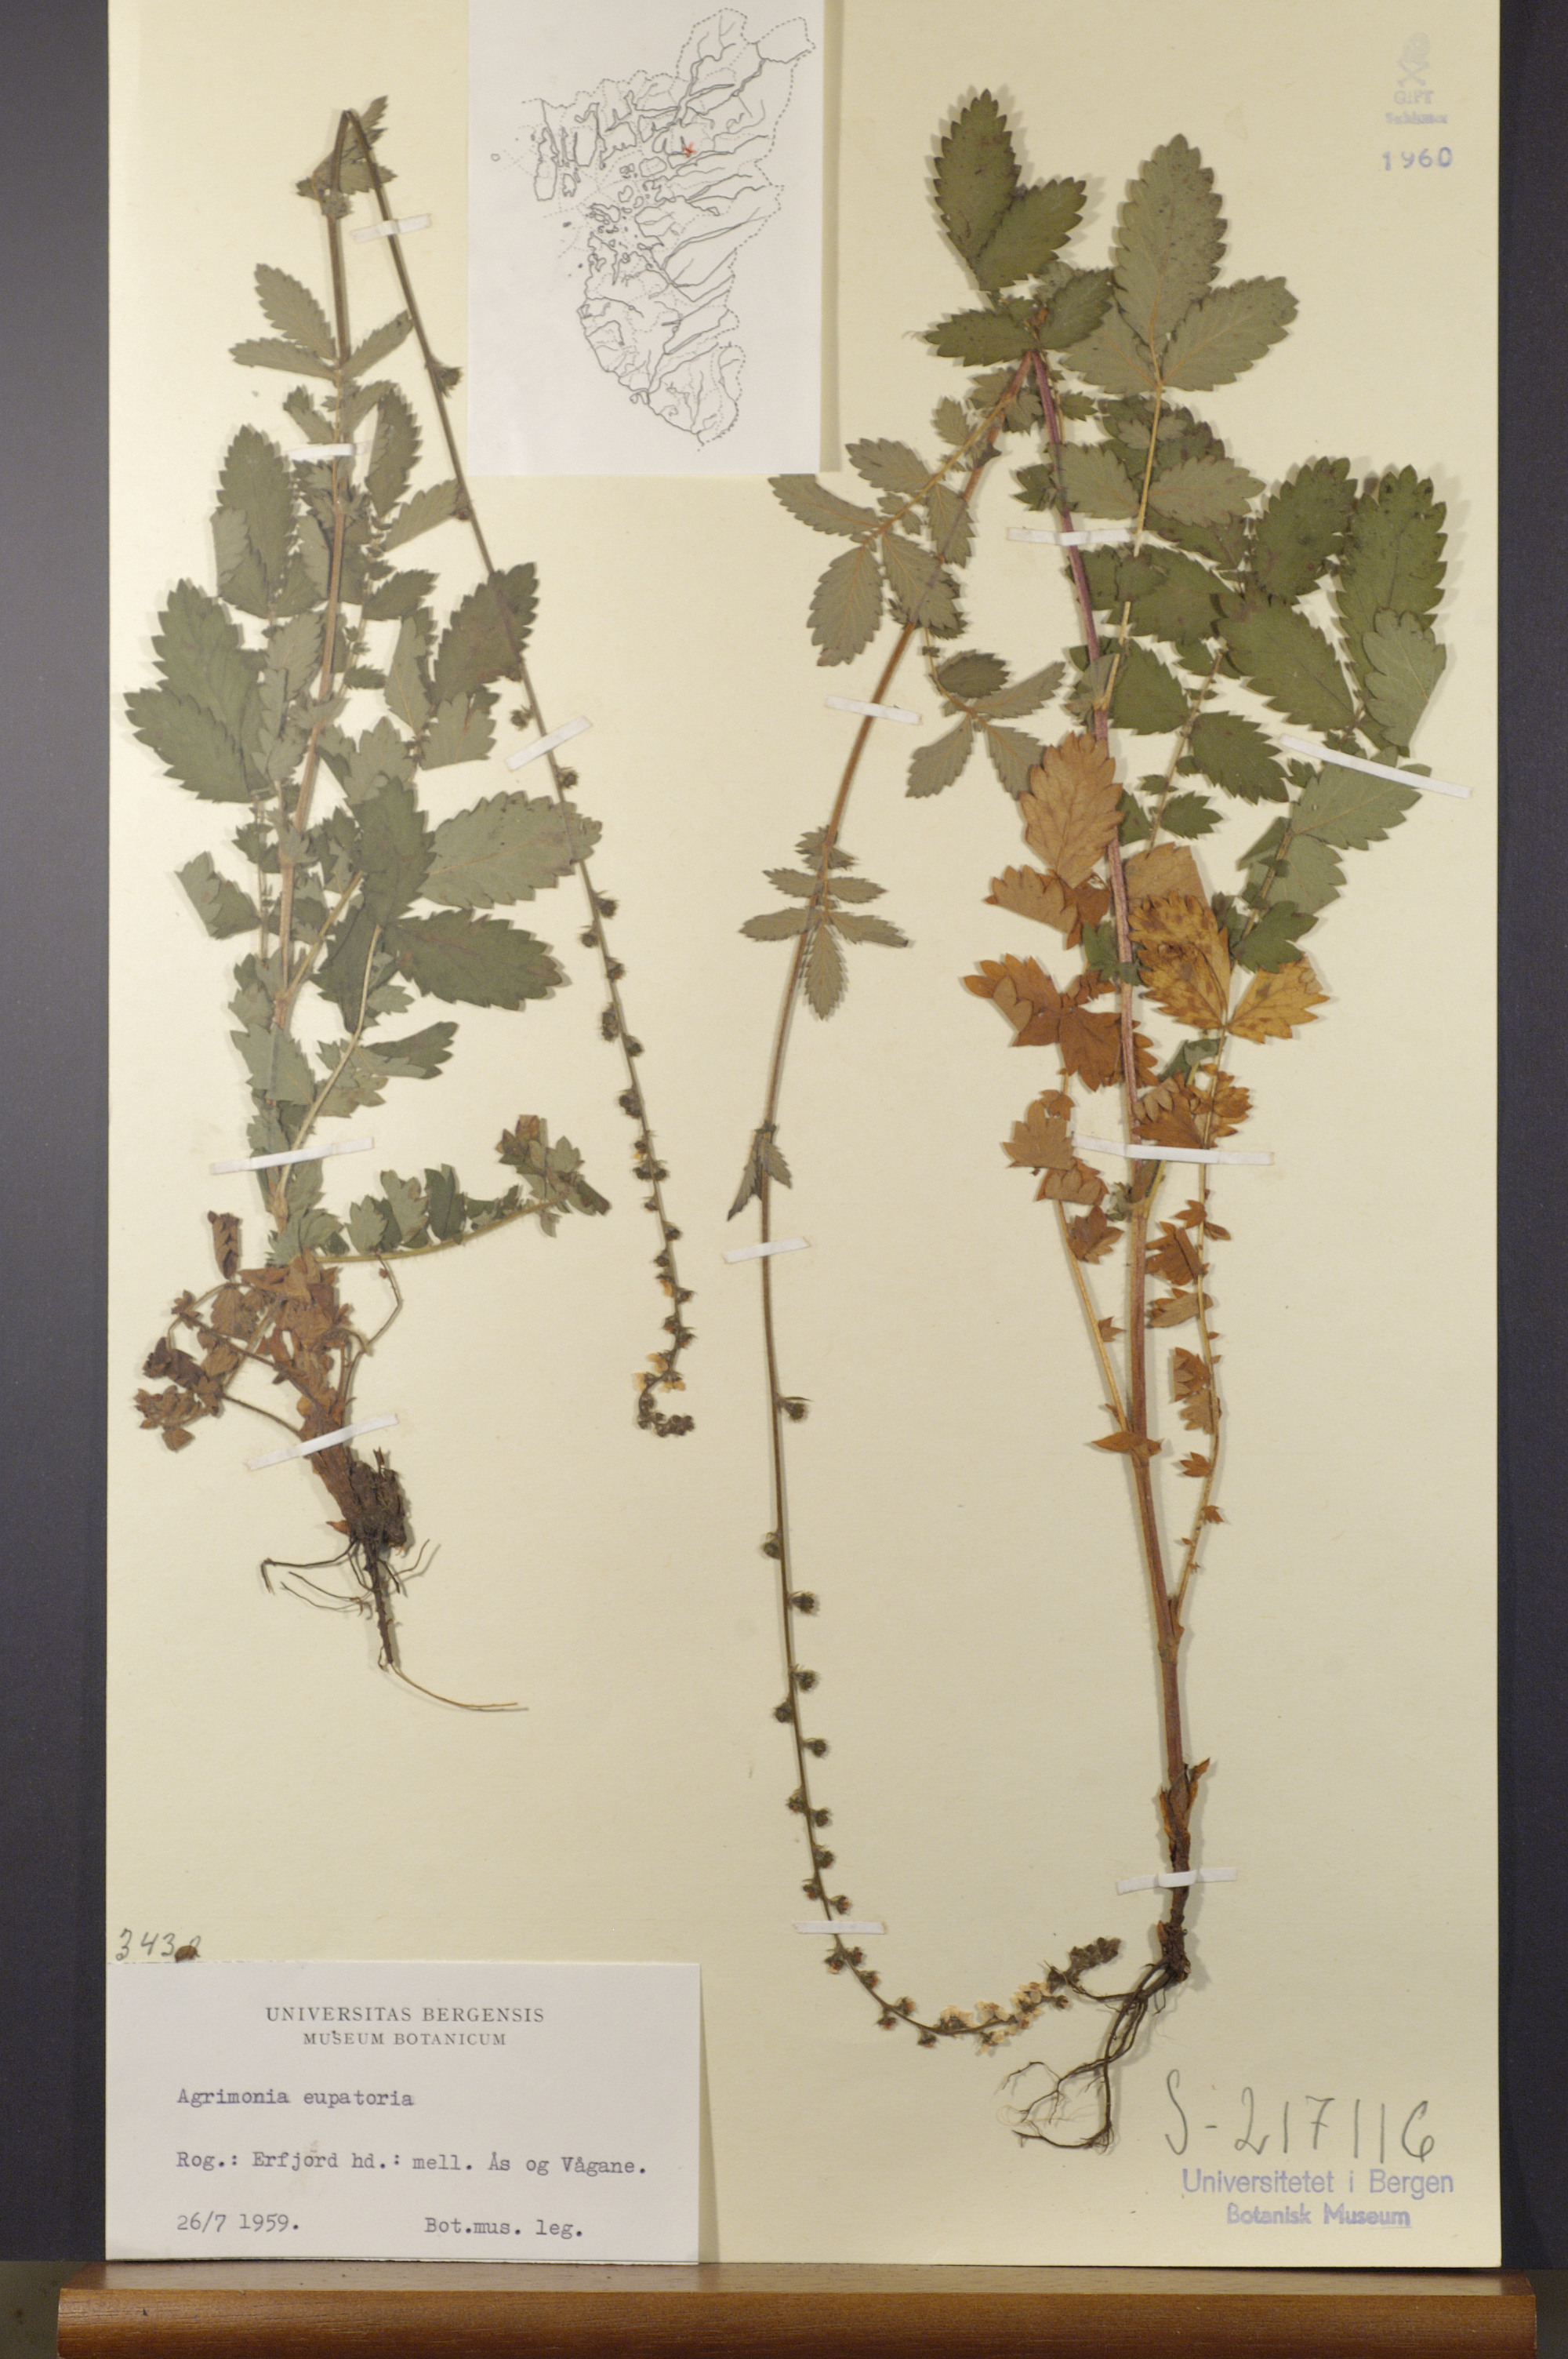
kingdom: Plantae
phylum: Tracheophyta
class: Magnoliopsida
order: Rosales
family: Rosaceae
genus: Agrimonia
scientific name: Agrimonia eupatoria
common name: Agrimony
